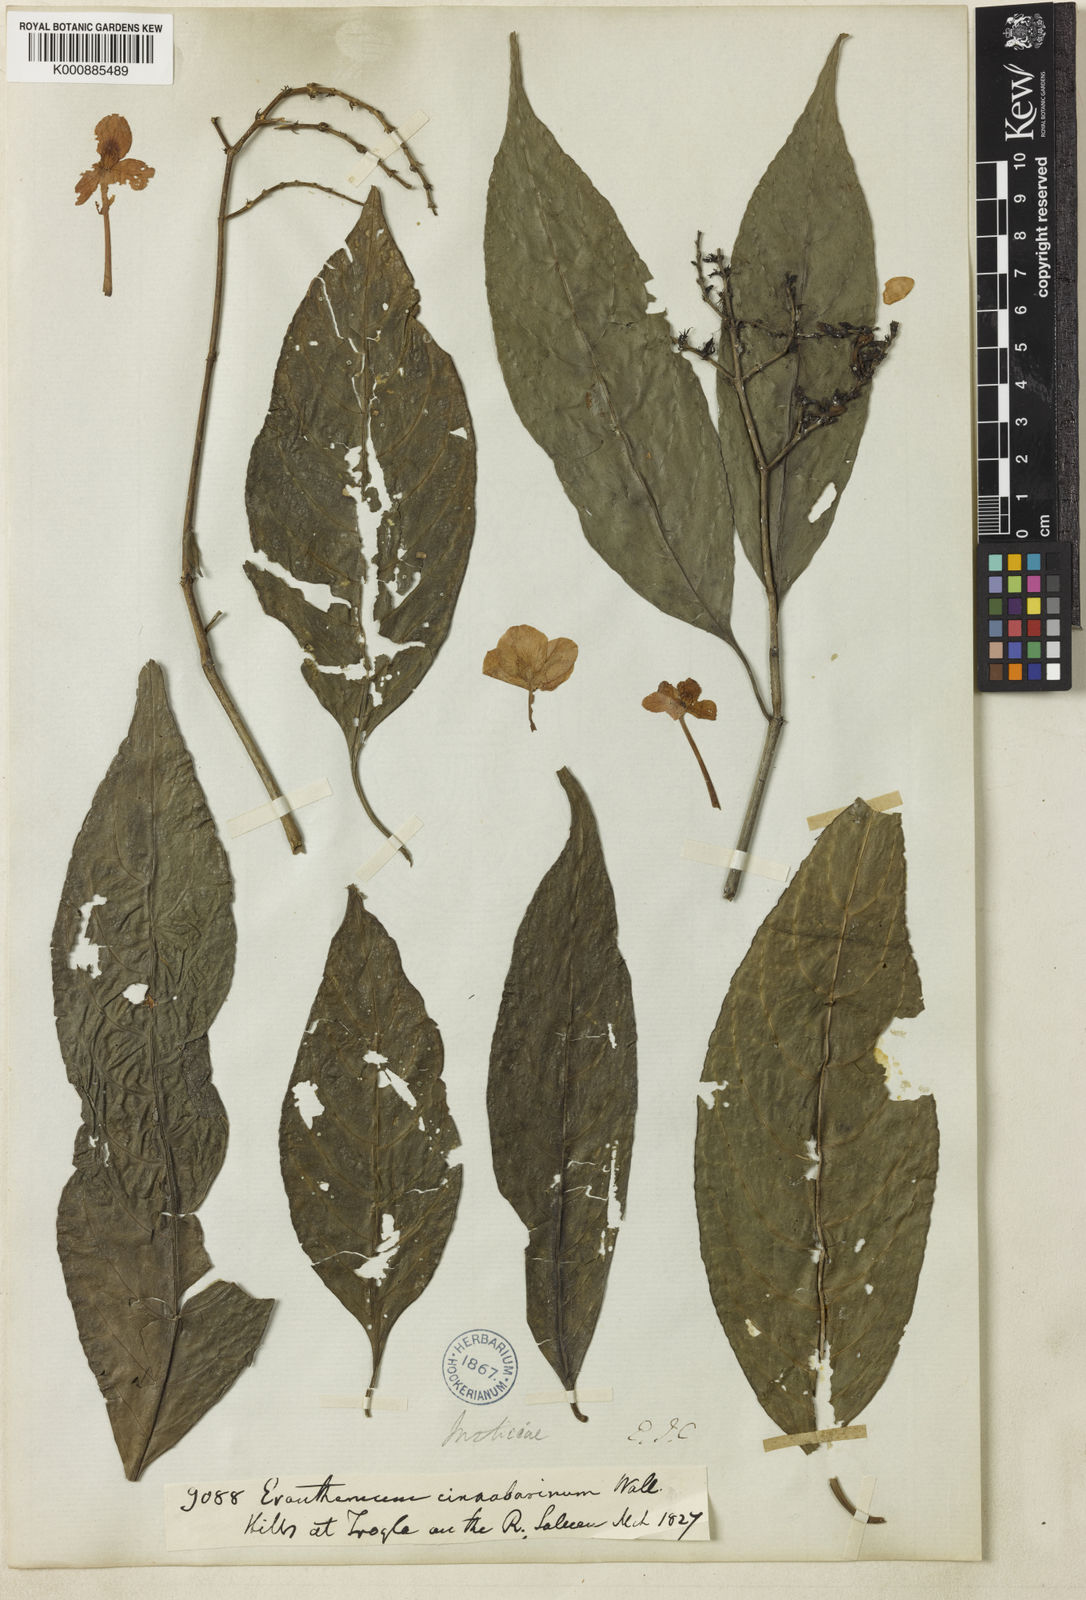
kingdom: Plantae
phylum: Tracheophyta
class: Magnoliopsida
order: Lamiales
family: Acanthaceae
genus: Pseuderanthemum
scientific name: Pseuderanthemum cinnabarinum
